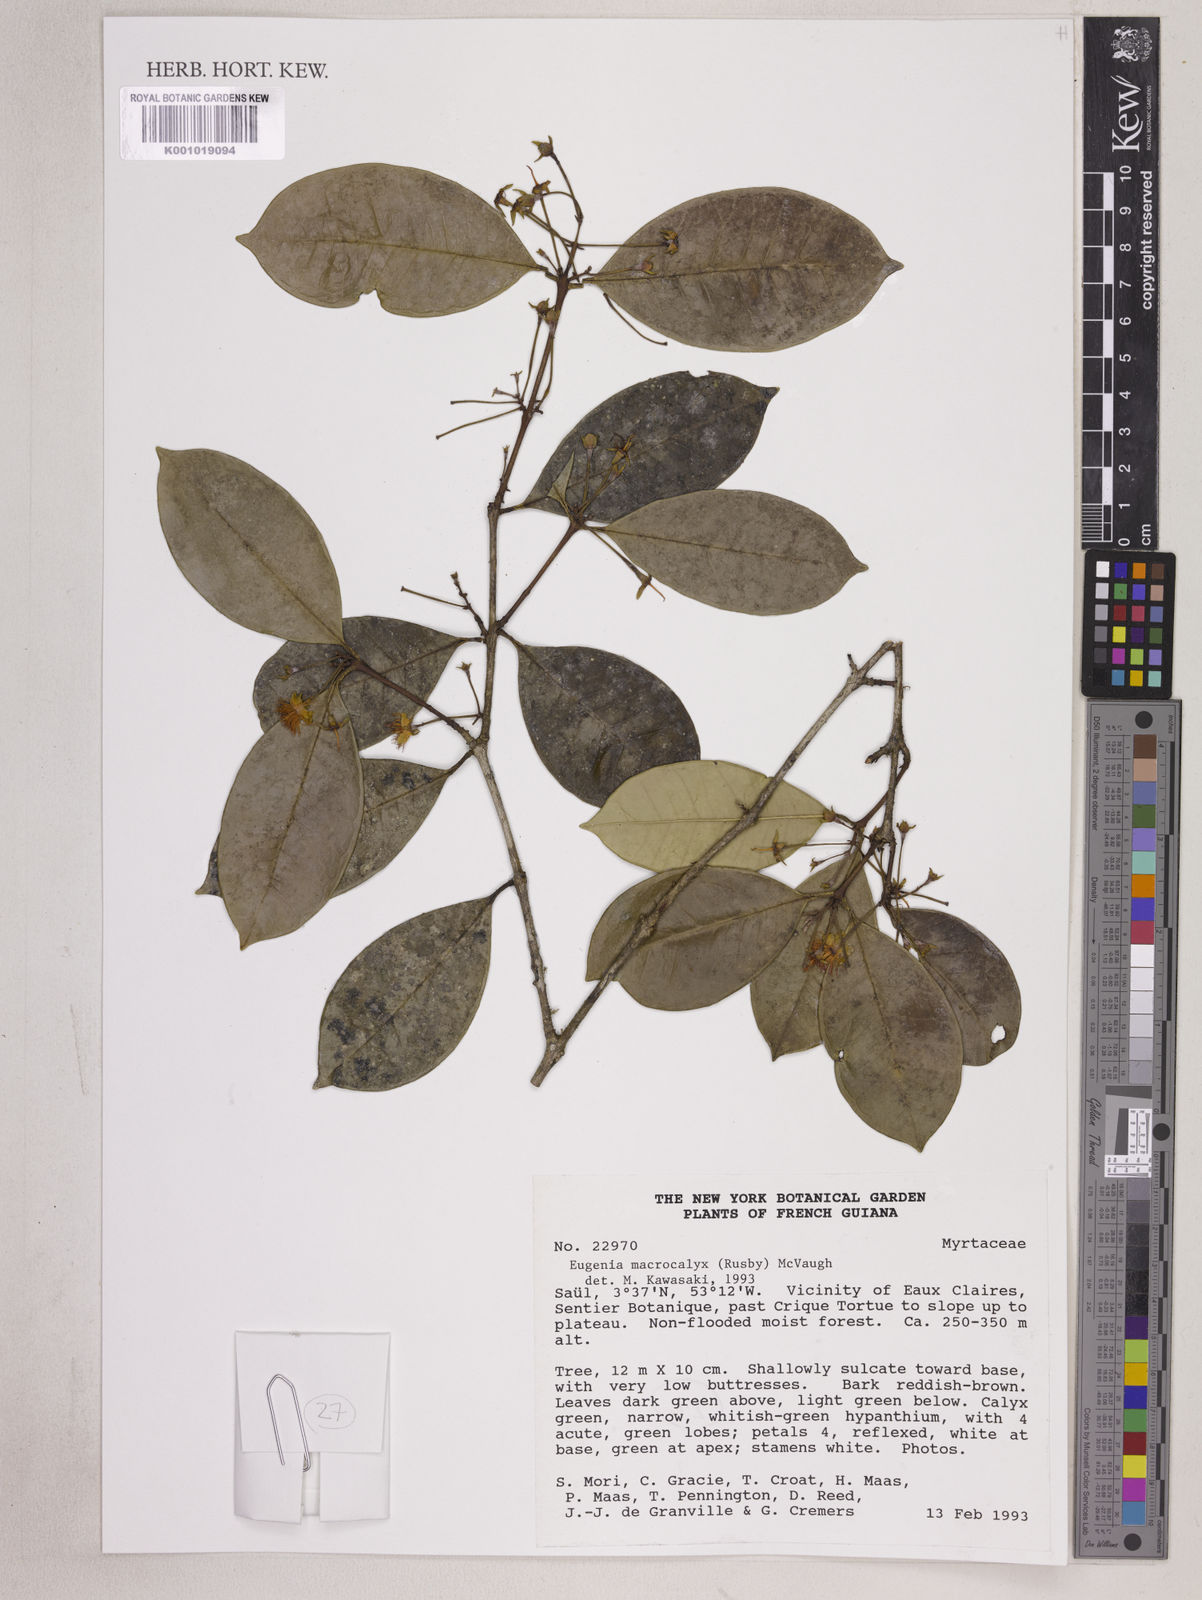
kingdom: Plantae
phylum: Tracheophyta
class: Magnoliopsida
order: Myrtales
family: Myrtaceae
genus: Eugenia
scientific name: Eugenia wentii
